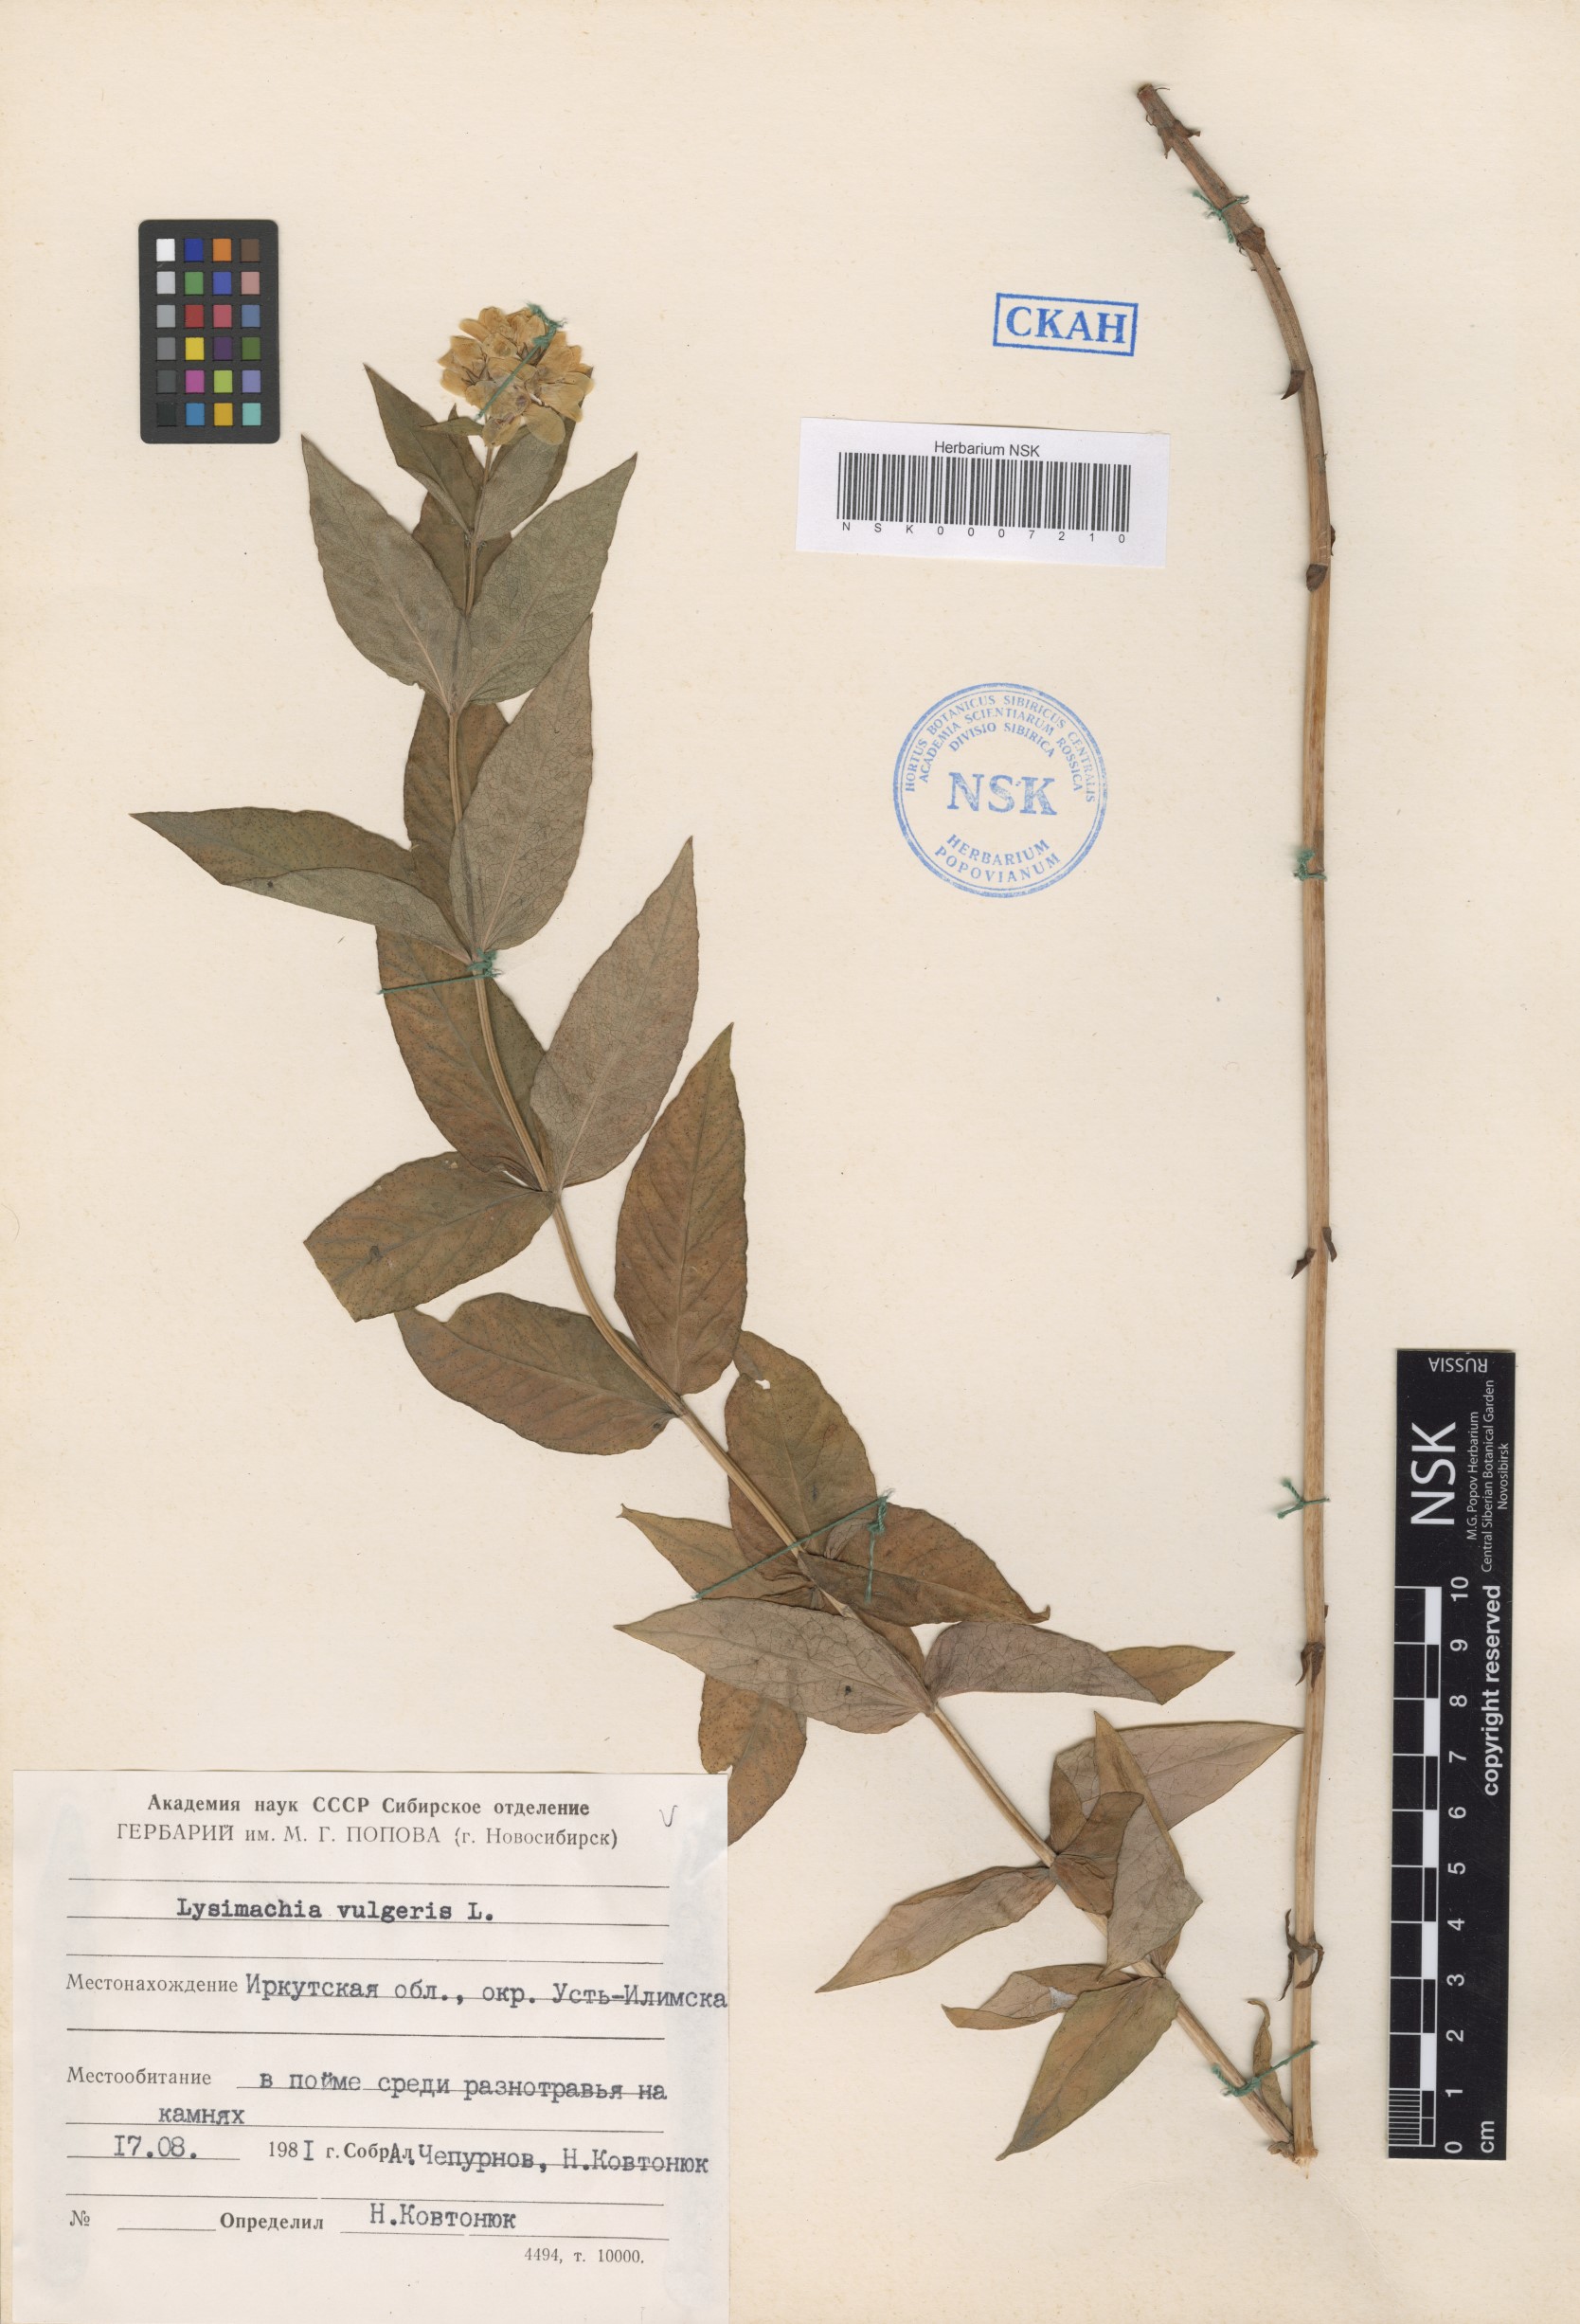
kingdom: Plantae
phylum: Tracheophyta
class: Magnoliopsida
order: Ericales
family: Primulaceae
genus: Lysimachia
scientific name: Lysimachia vulgaris
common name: Yellow loosestrife
